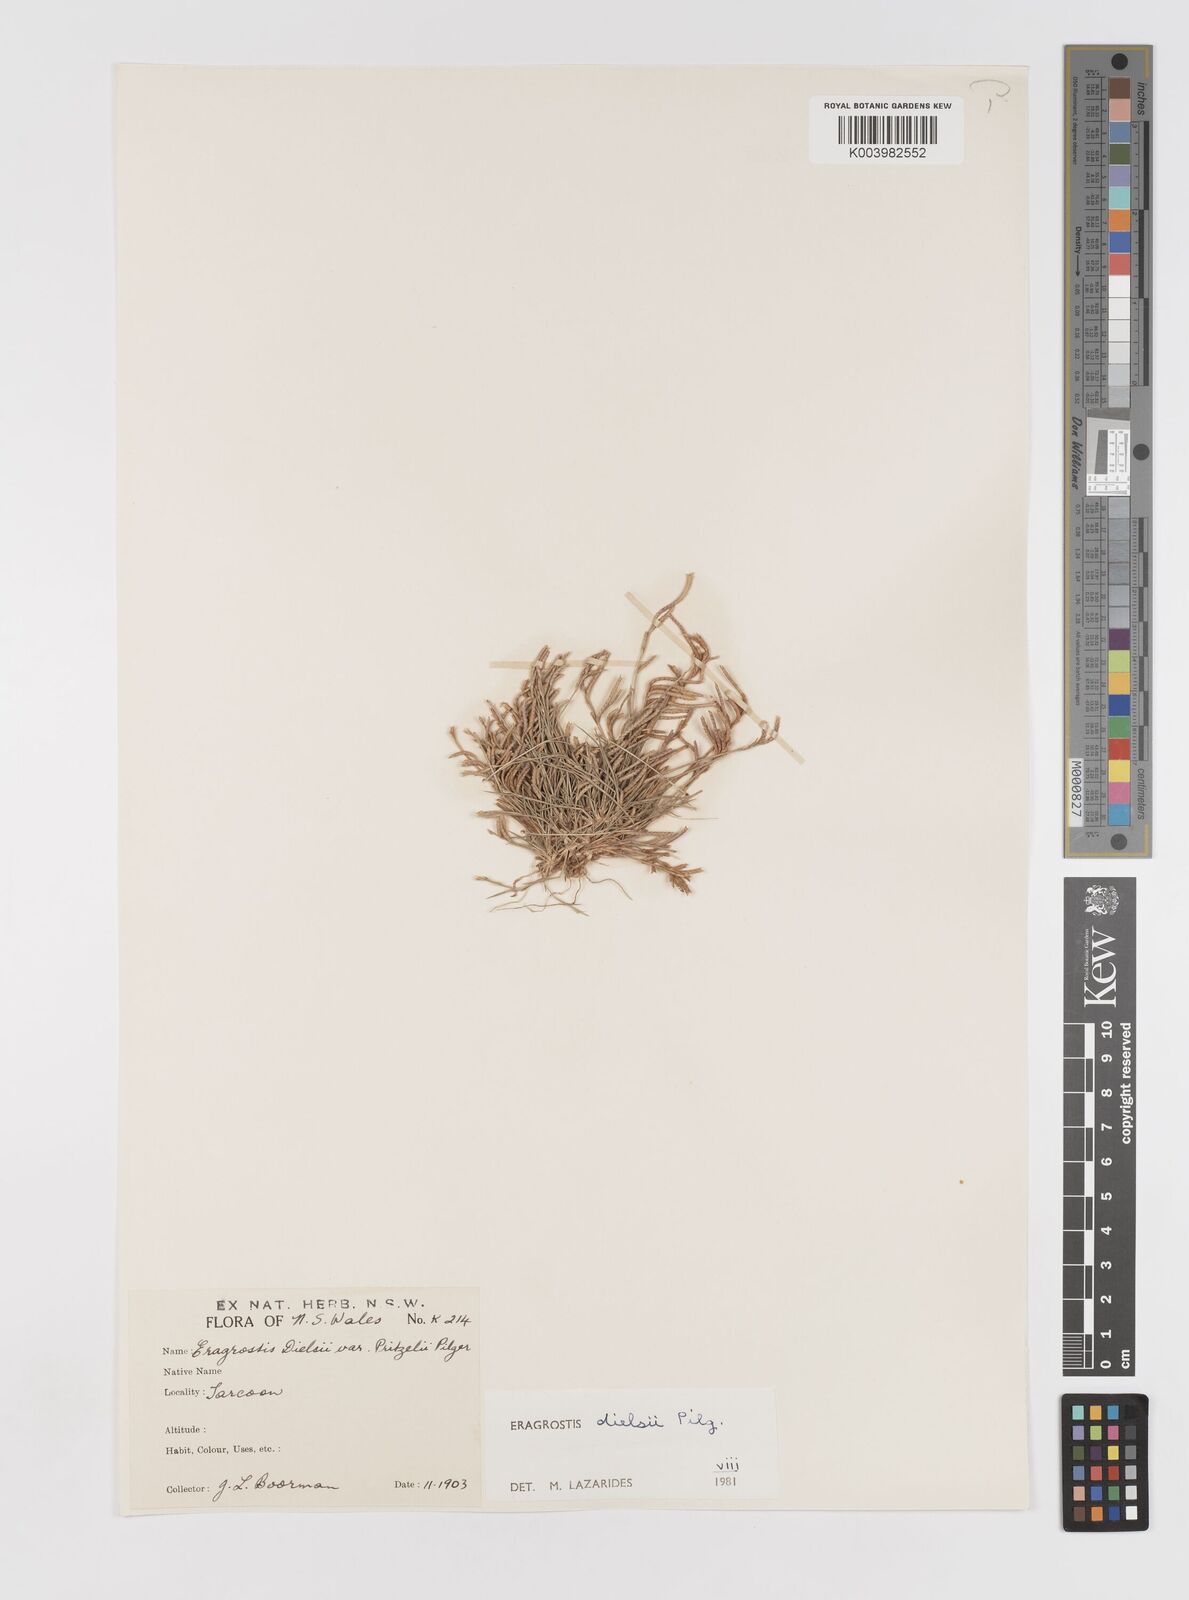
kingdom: Plantae
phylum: Tracheophyta
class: Liliopsida
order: Poales
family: Poaceae
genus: Eragrostis
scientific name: Eragrostis dielsii
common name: Lovegrass
